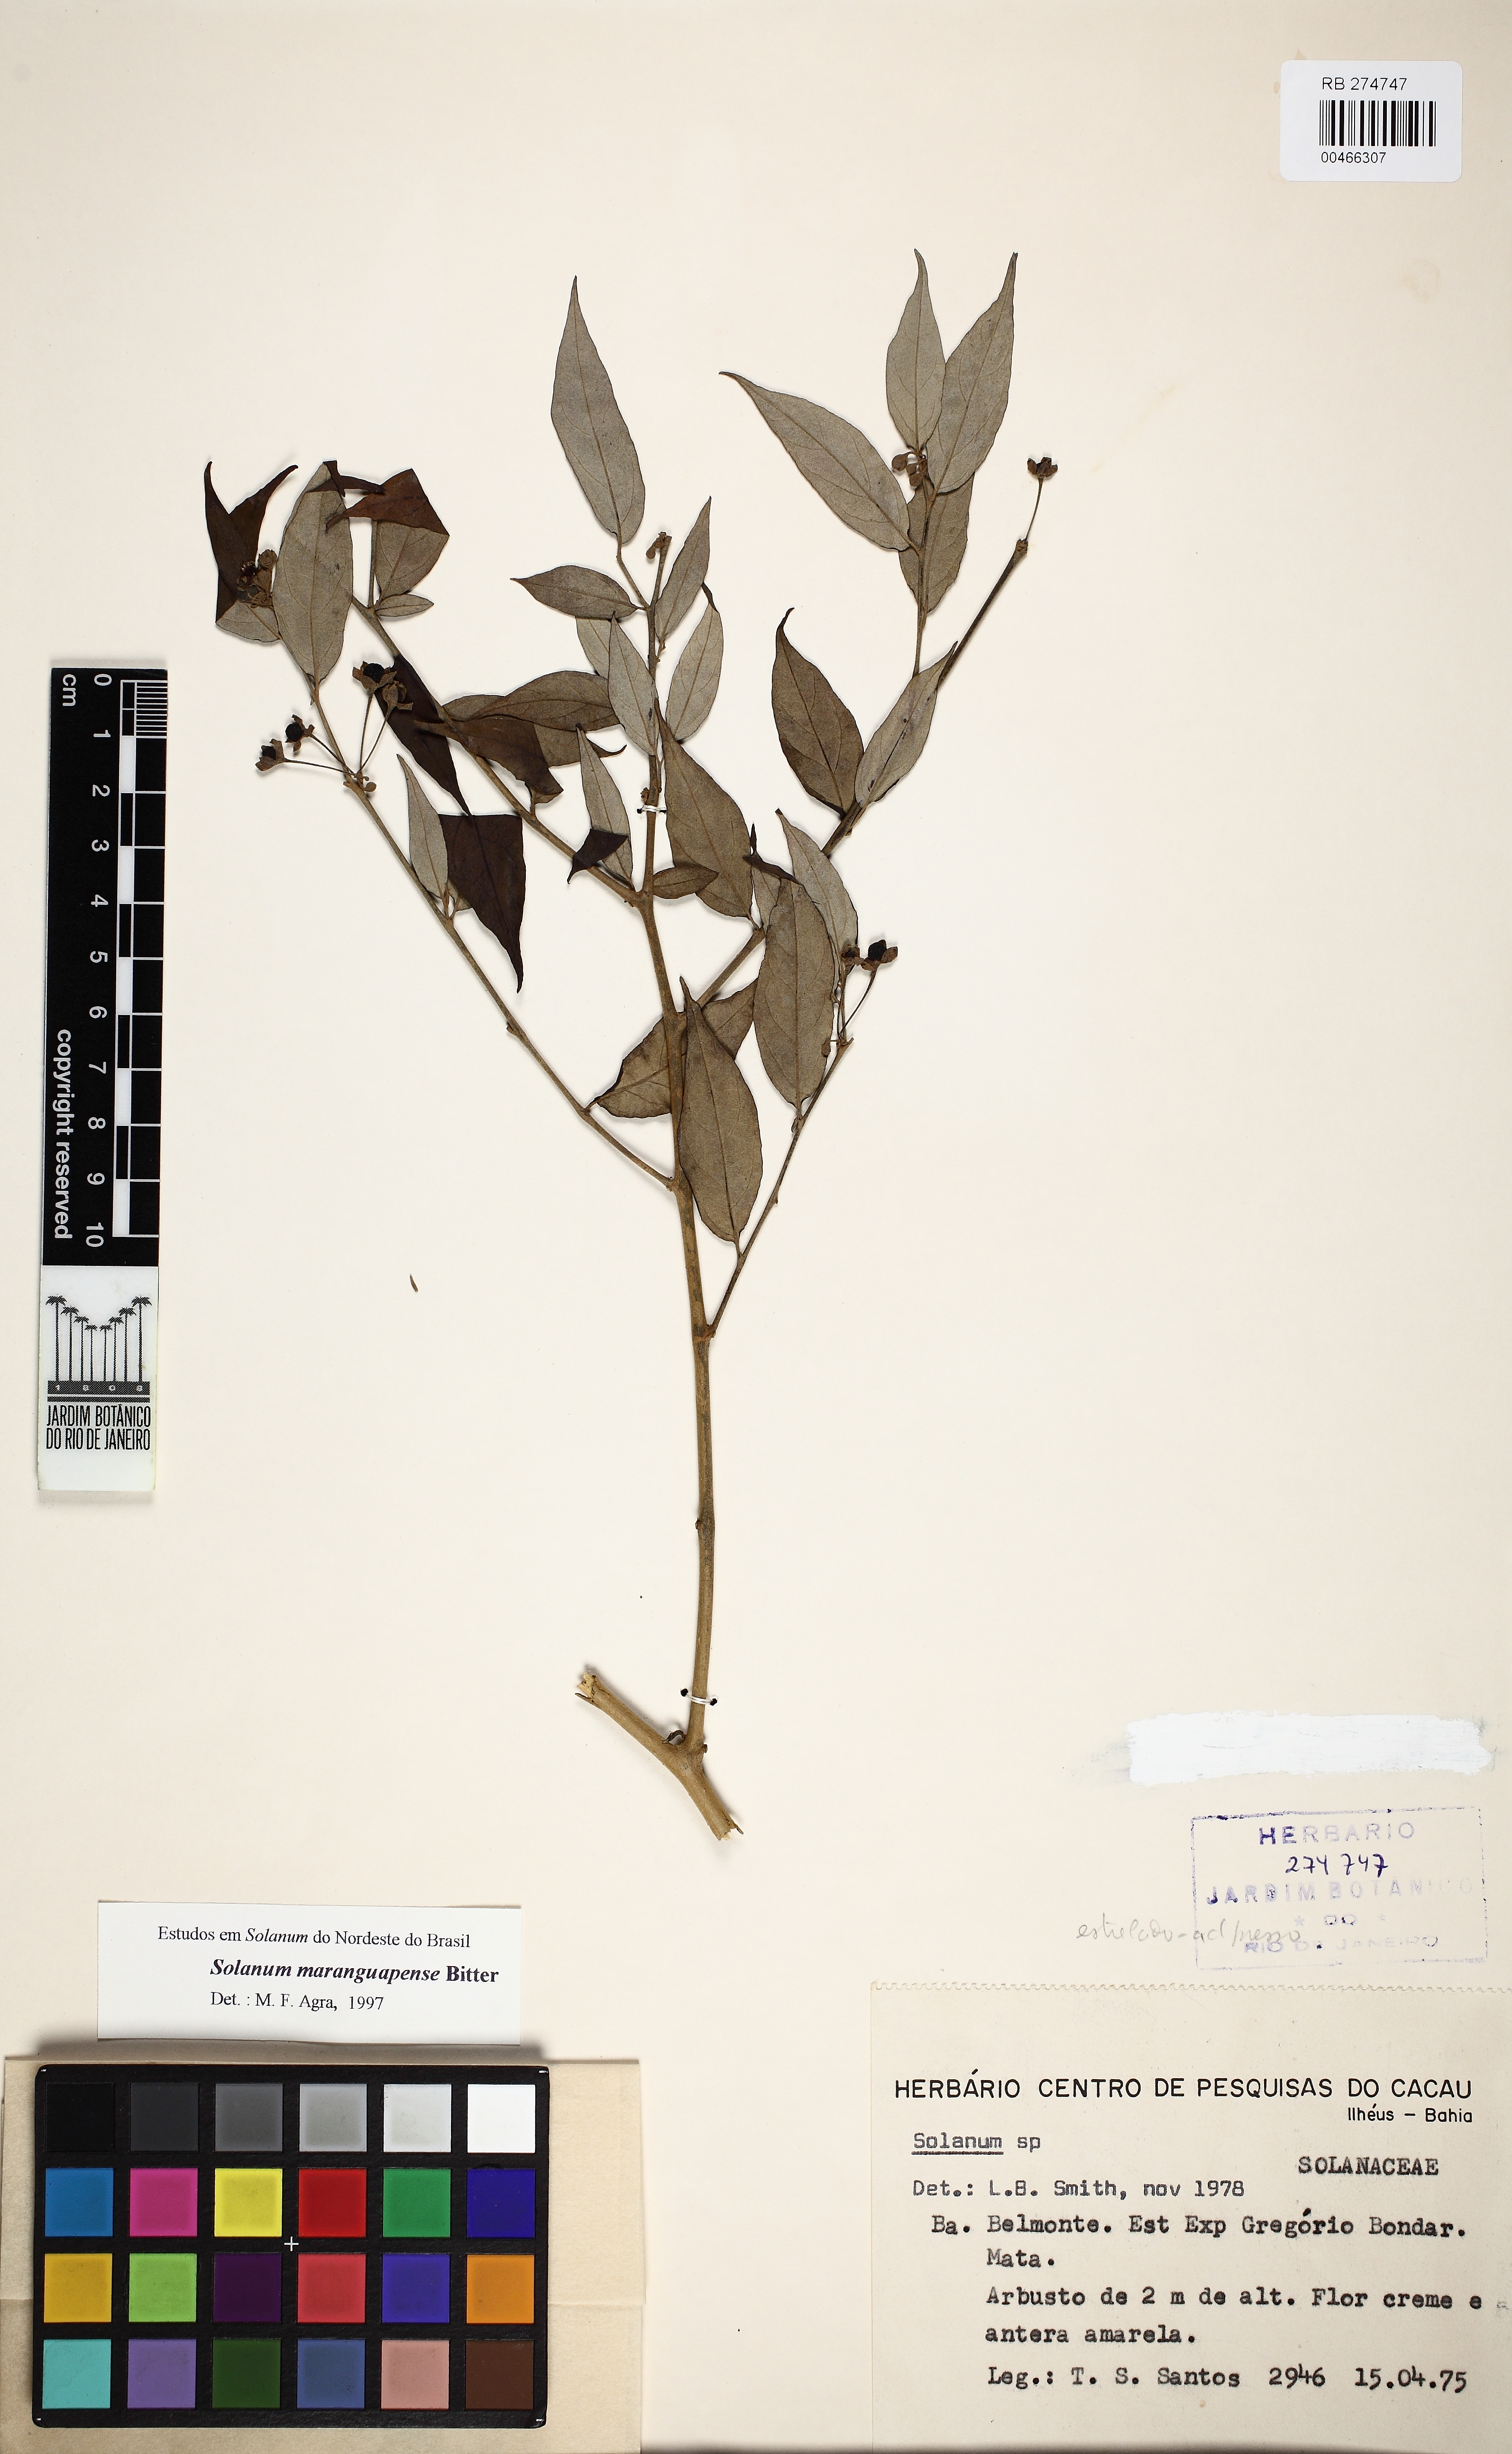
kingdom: Plantae
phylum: Tracheophyta
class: Magnoliopsida
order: Solanales
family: Solanaceae
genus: Solanum
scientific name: Solanum maranguapense
